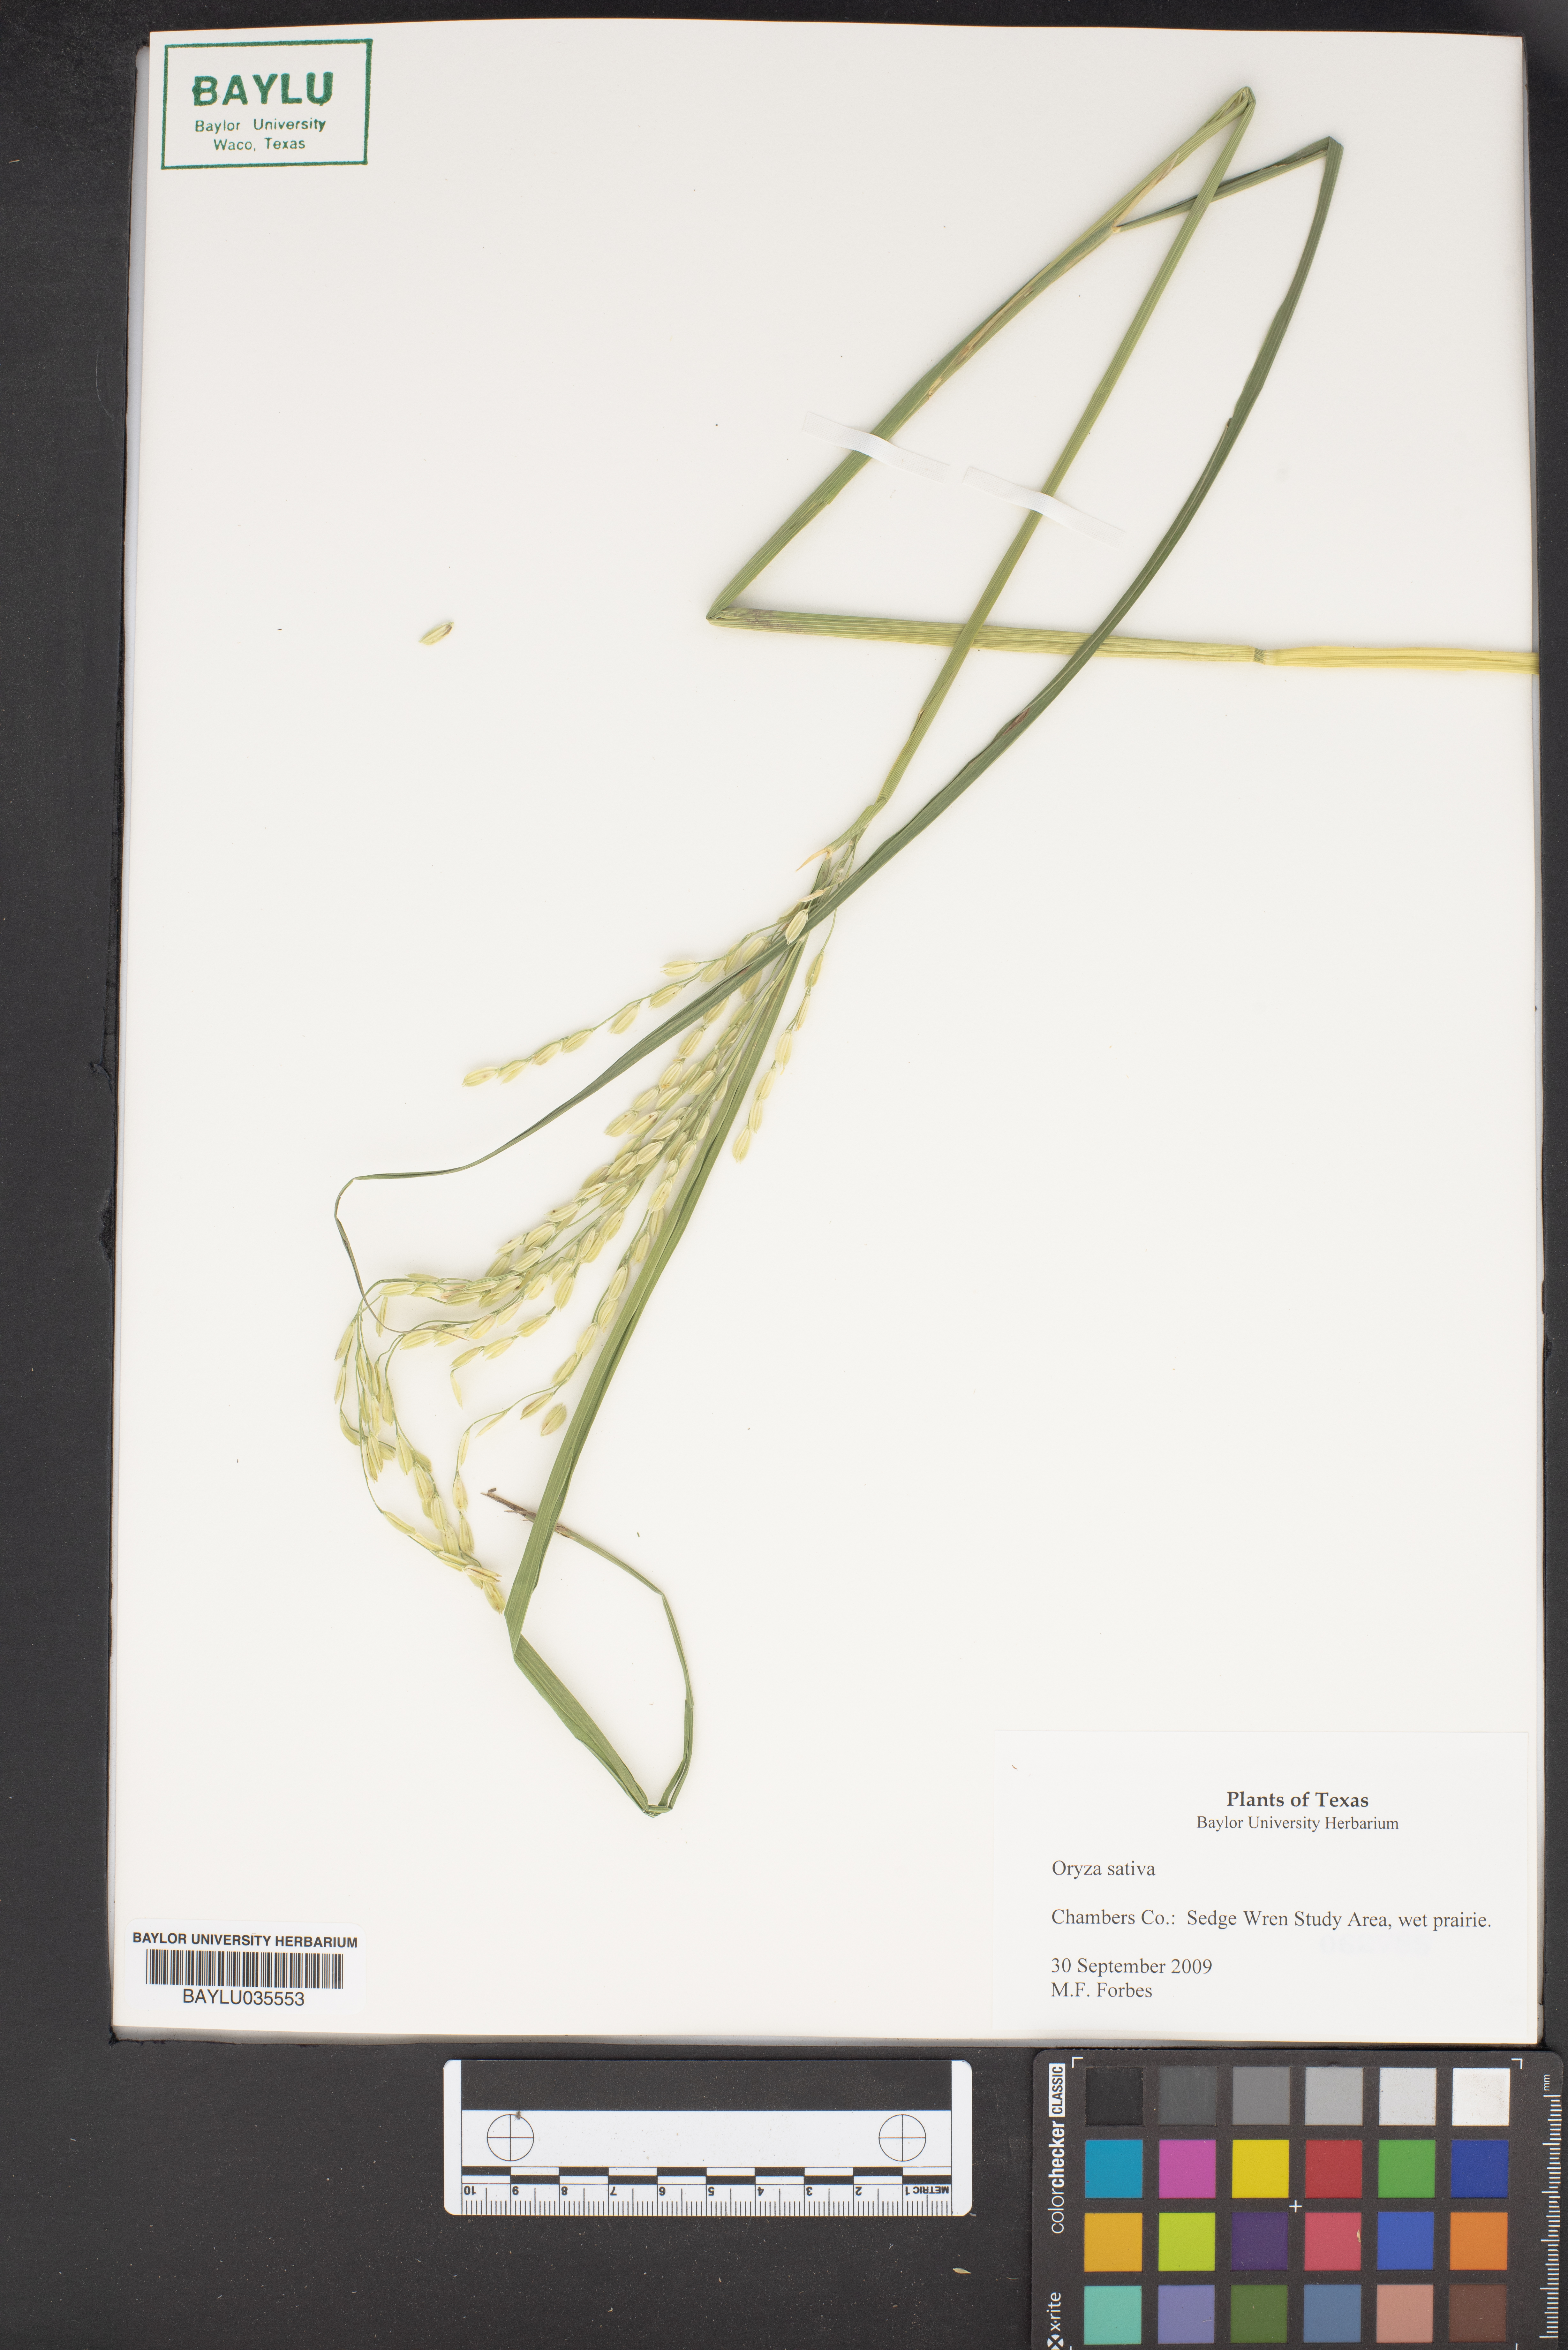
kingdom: Plantae
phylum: Tracheophyta
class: Liliopsida
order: Poales
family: Poaceae
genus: Oryza
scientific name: Oryza sativa
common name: Rice
